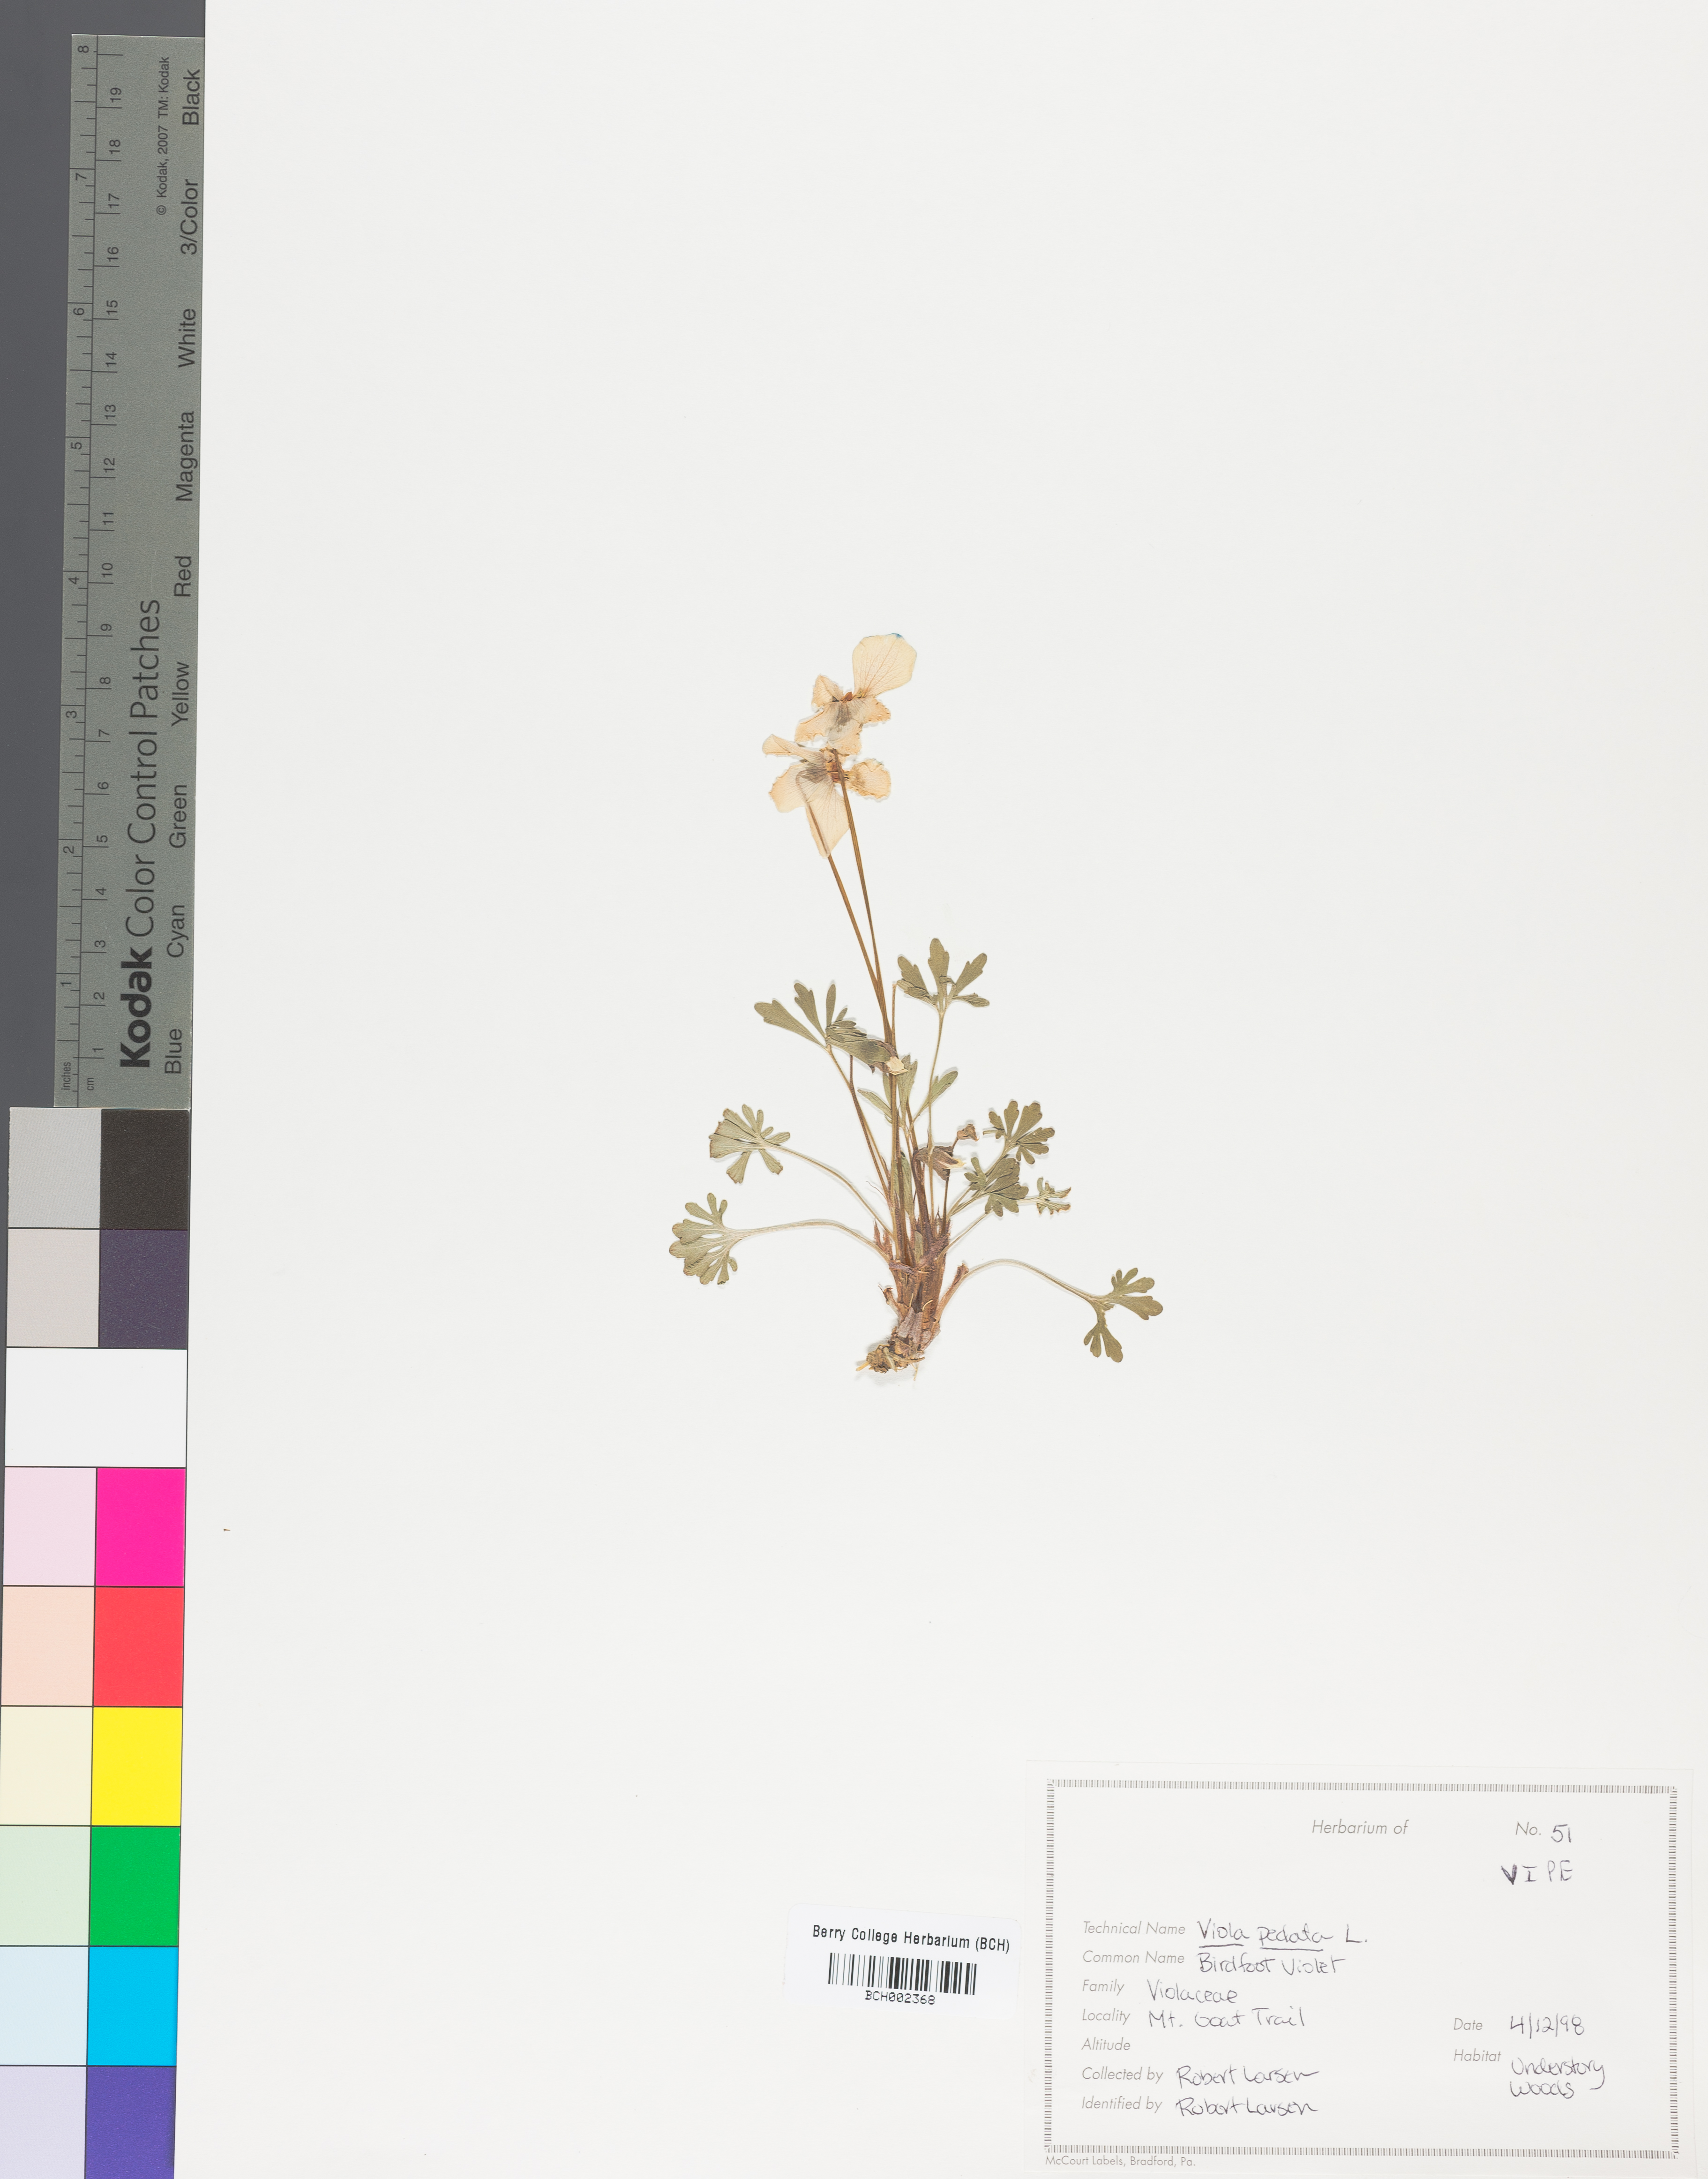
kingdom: Plantae
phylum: Tracheophyta
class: Magnoliopsida
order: Malpighiales
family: Violaceae
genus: Viola
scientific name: Viola pedata
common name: Pansy violet
